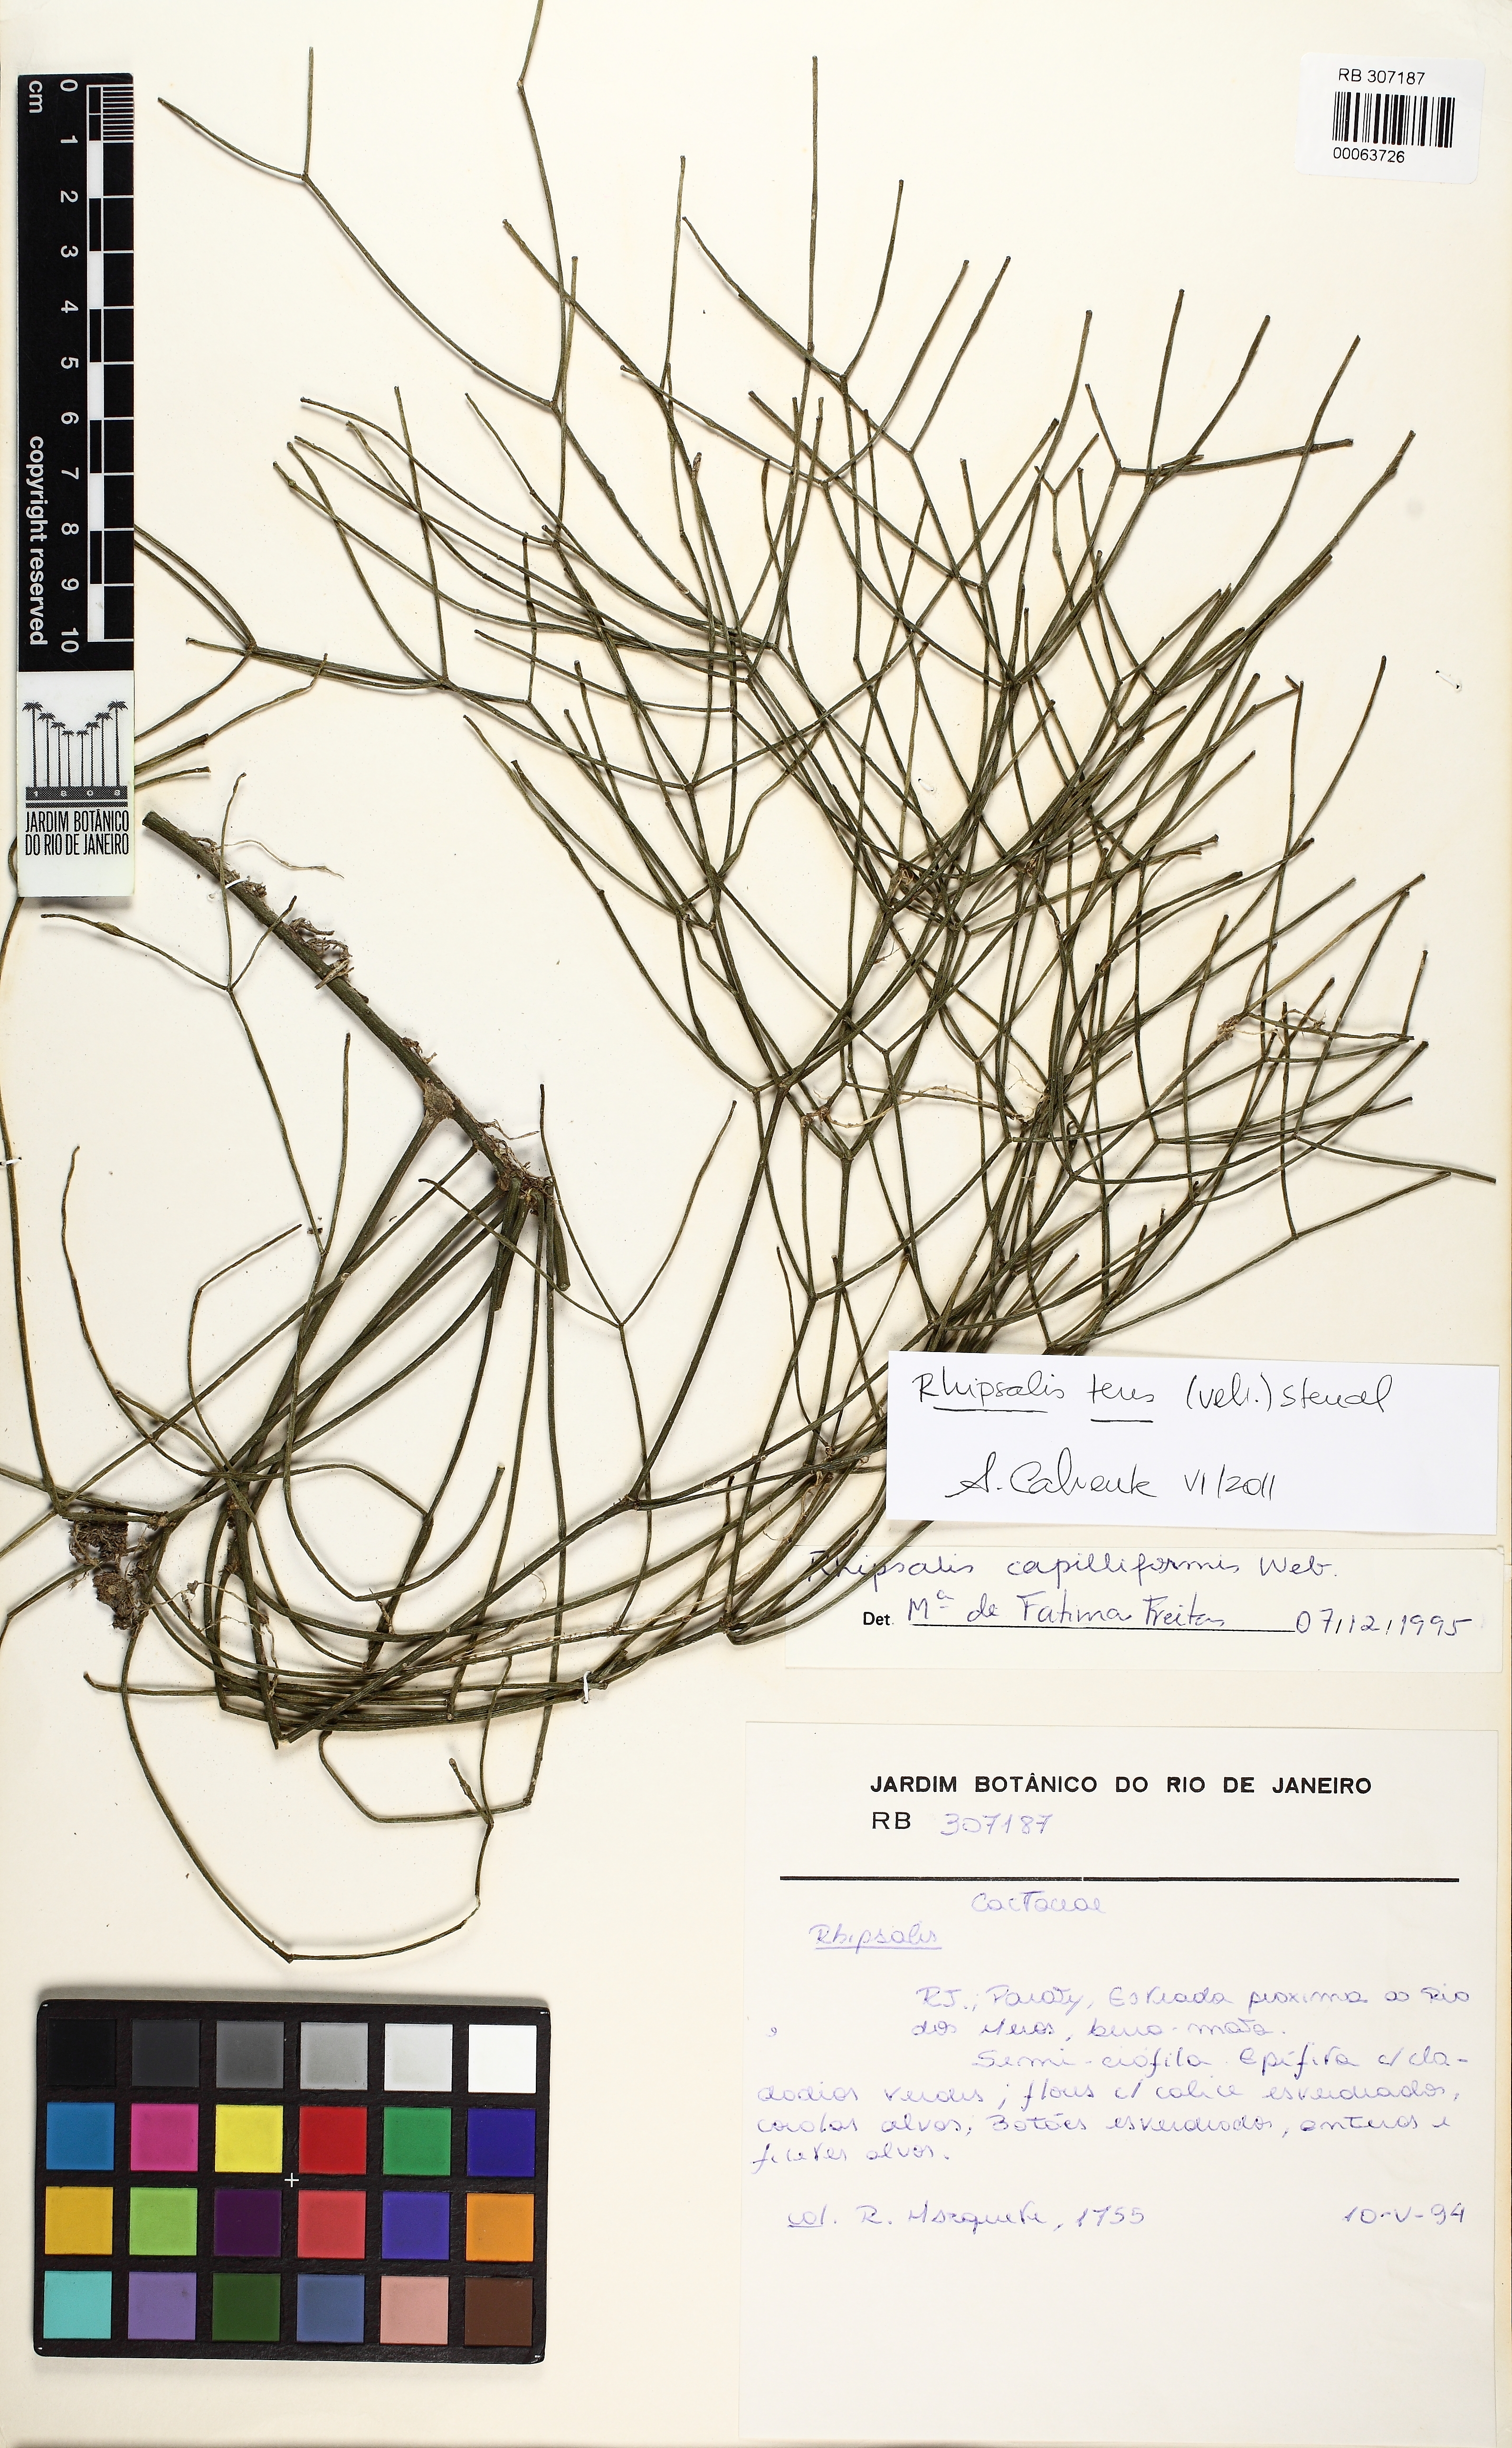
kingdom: Plantae
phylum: Tracheophyta
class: Magnoliopsida
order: Caryophyllales
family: Cactaceae
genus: Rhipsalis
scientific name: Rhipsalis teres
